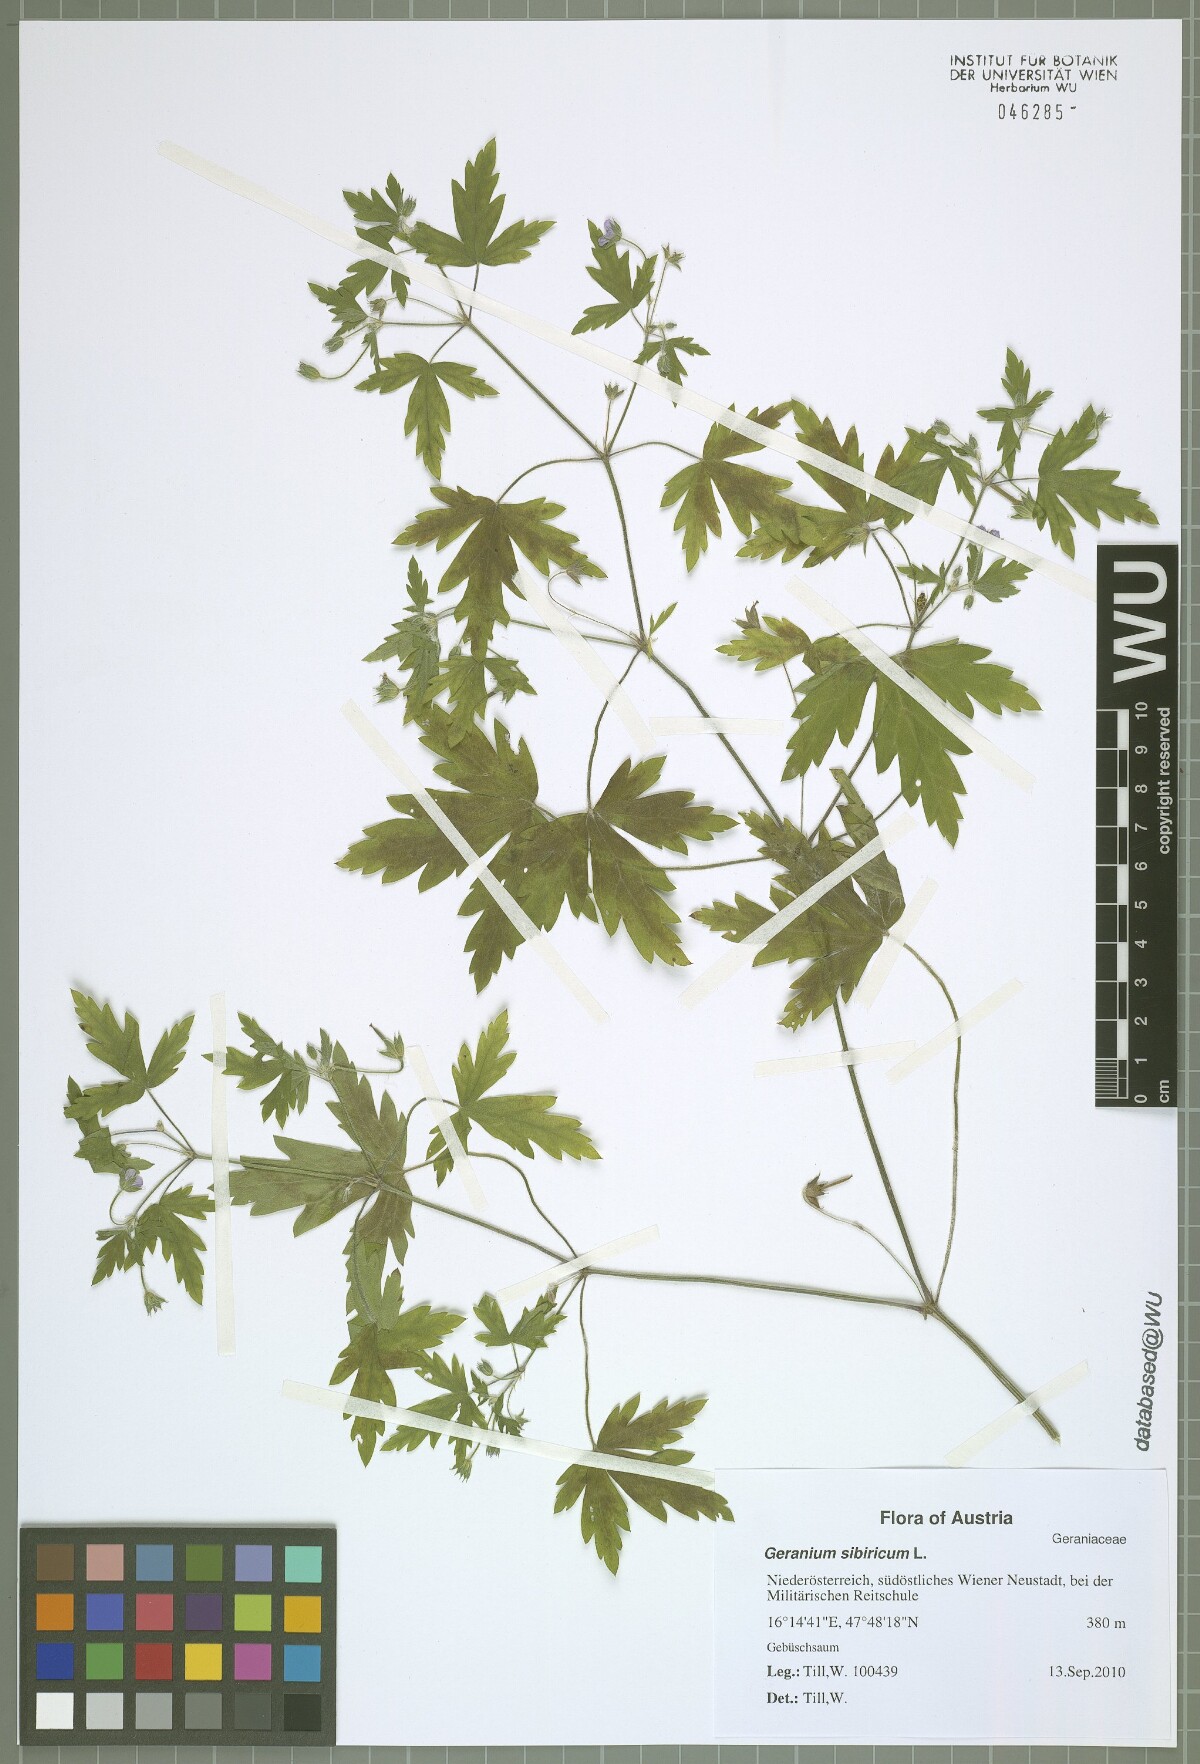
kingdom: Plantae
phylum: Tracheophyta
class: Magnoliopsida
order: Geraniales
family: Geraniaceae
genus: Geranium
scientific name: Geranium sibiricum
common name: Siberian crane's-bill
